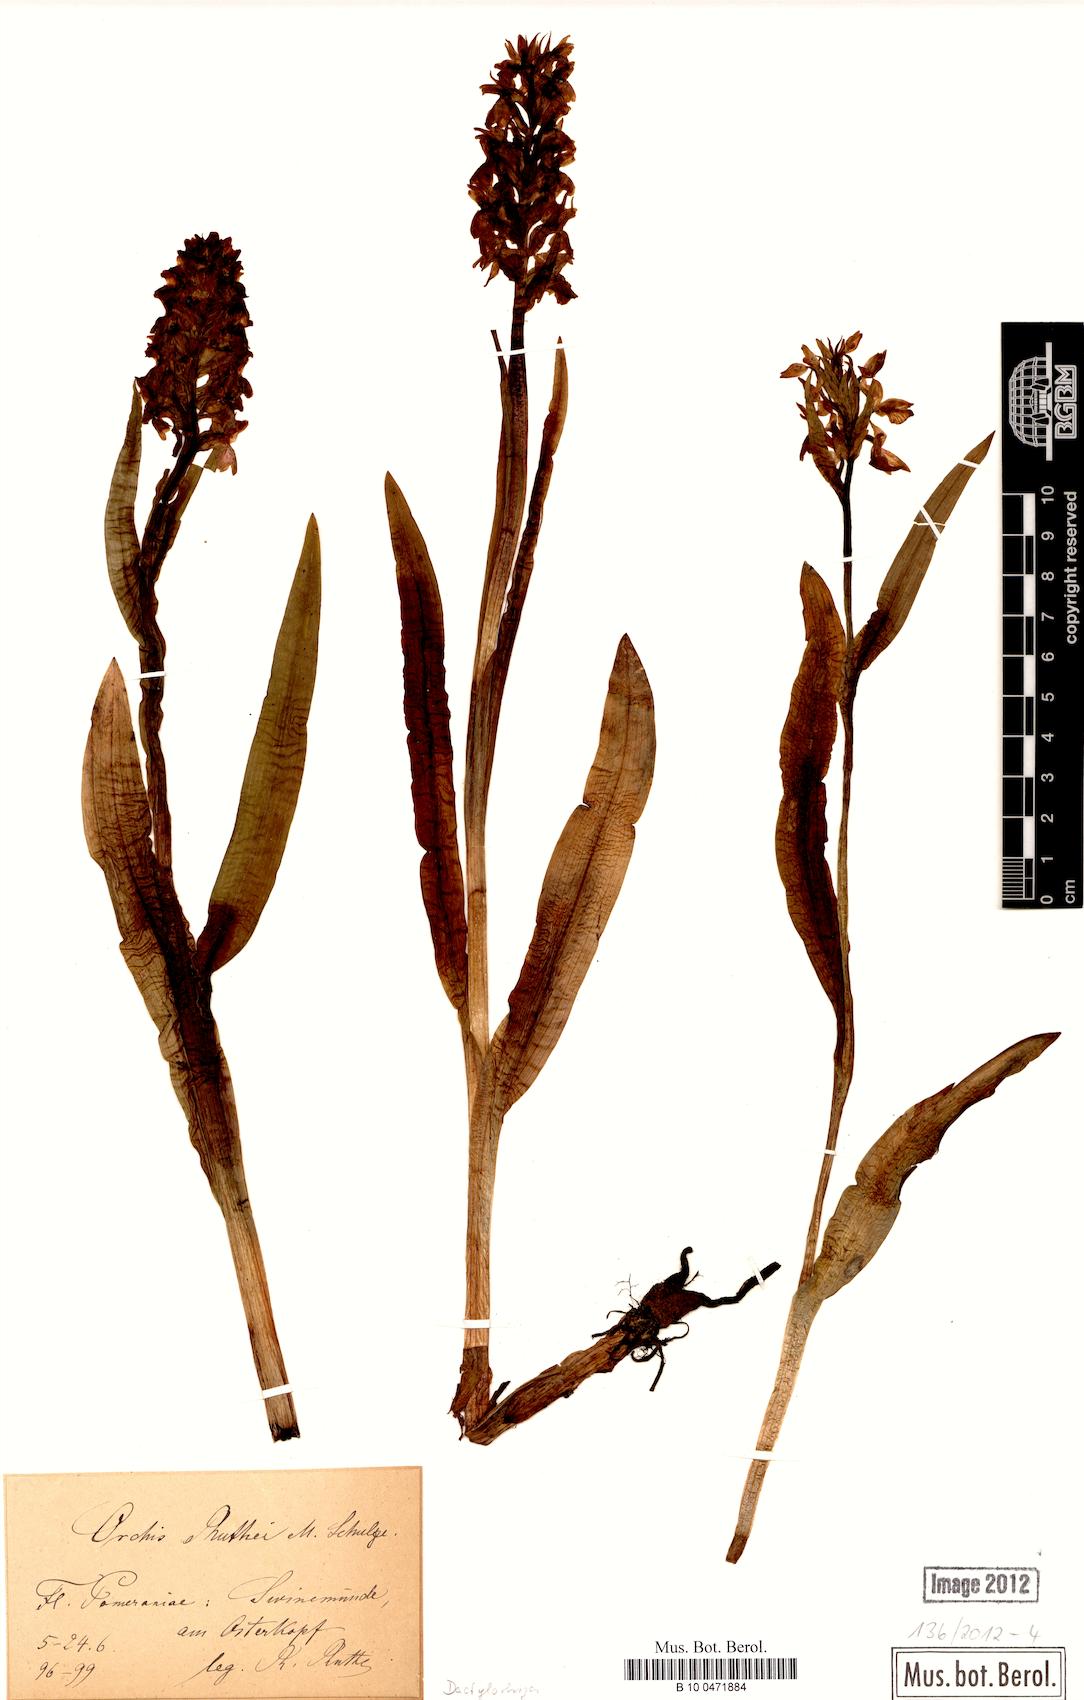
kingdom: Plantae
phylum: Tracheophyta
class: Liliopsida
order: Asparagales
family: Orchidaceae
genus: Dactylorhiza
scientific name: Dactylorhiza kerneriorum
